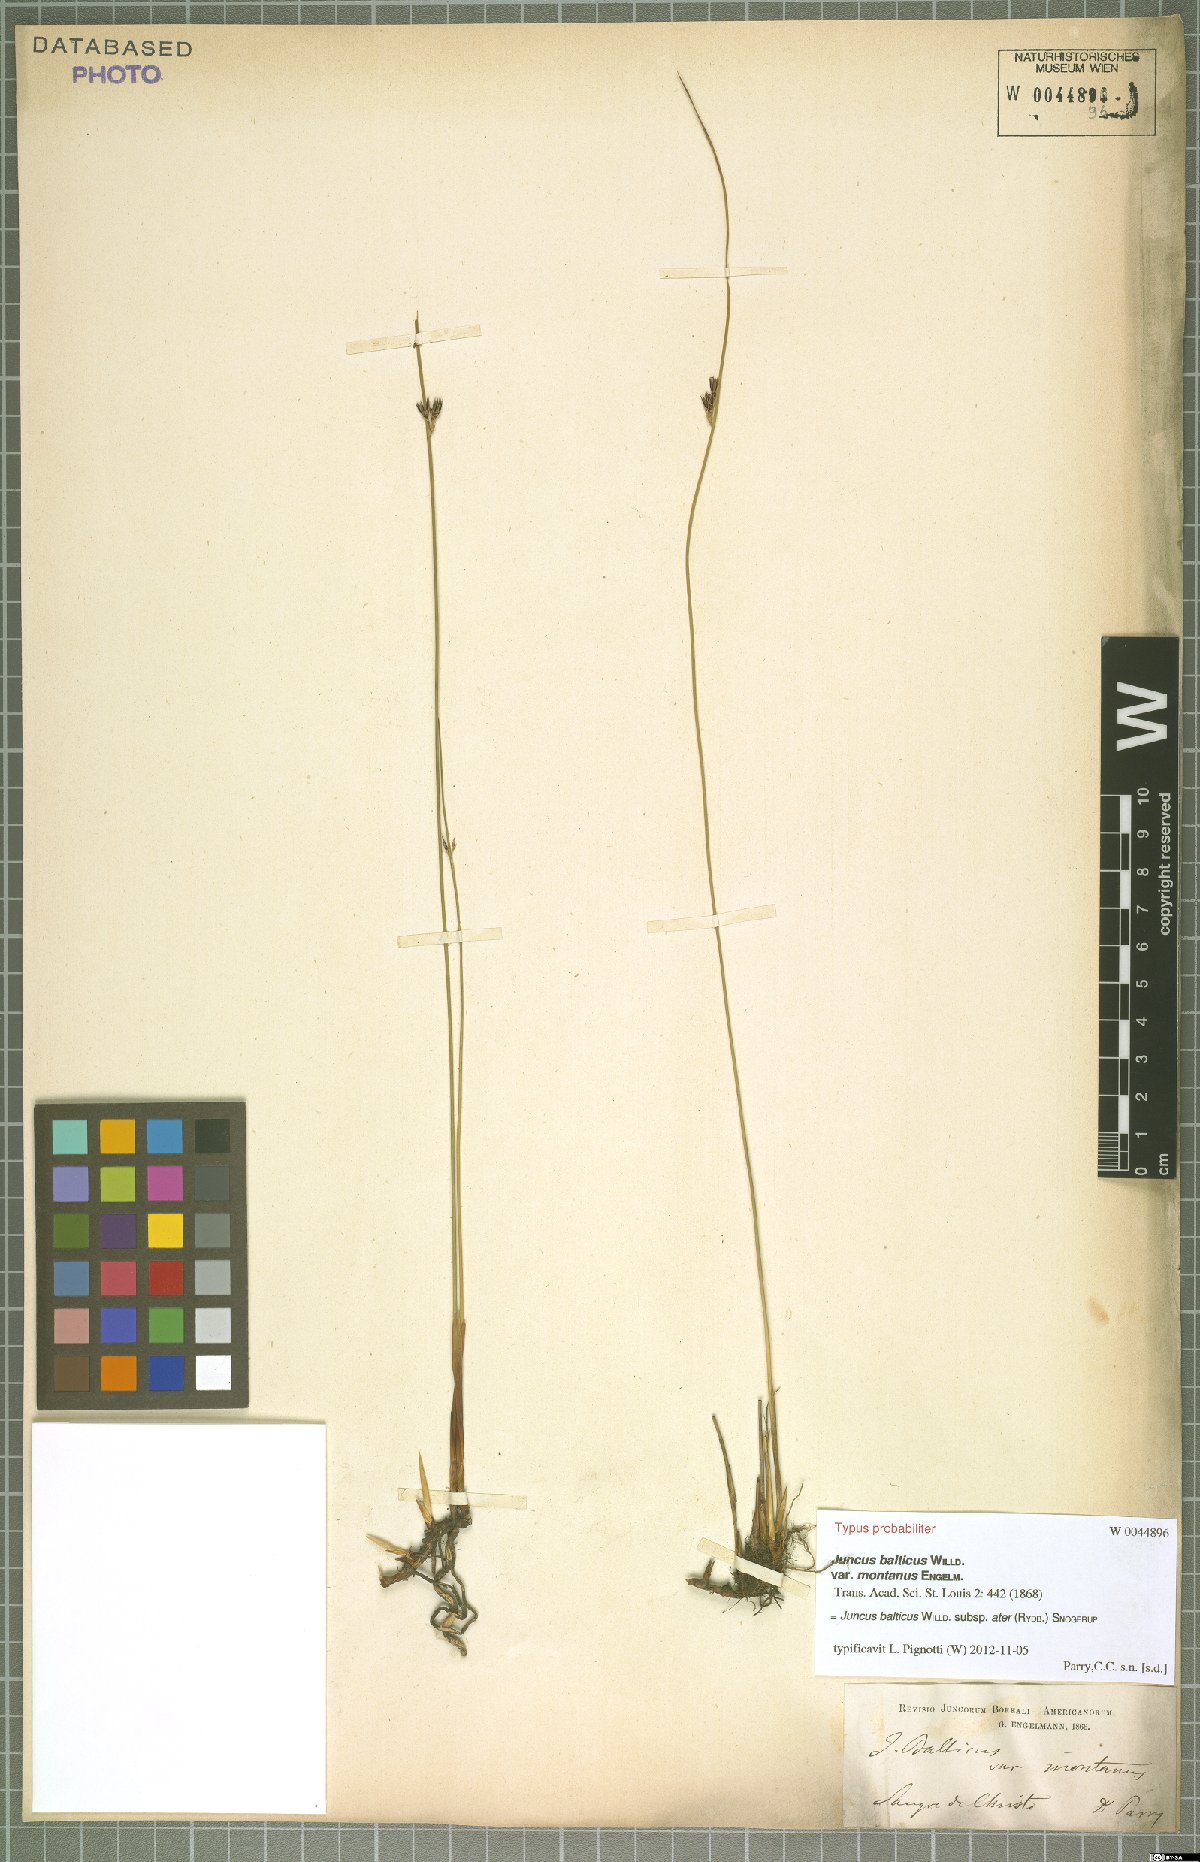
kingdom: Plantae
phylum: Tracheophyta
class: Liliopsida
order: Poales
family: Juncaceae
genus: Juncus
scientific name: Juncus balticus
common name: Baltic rush
